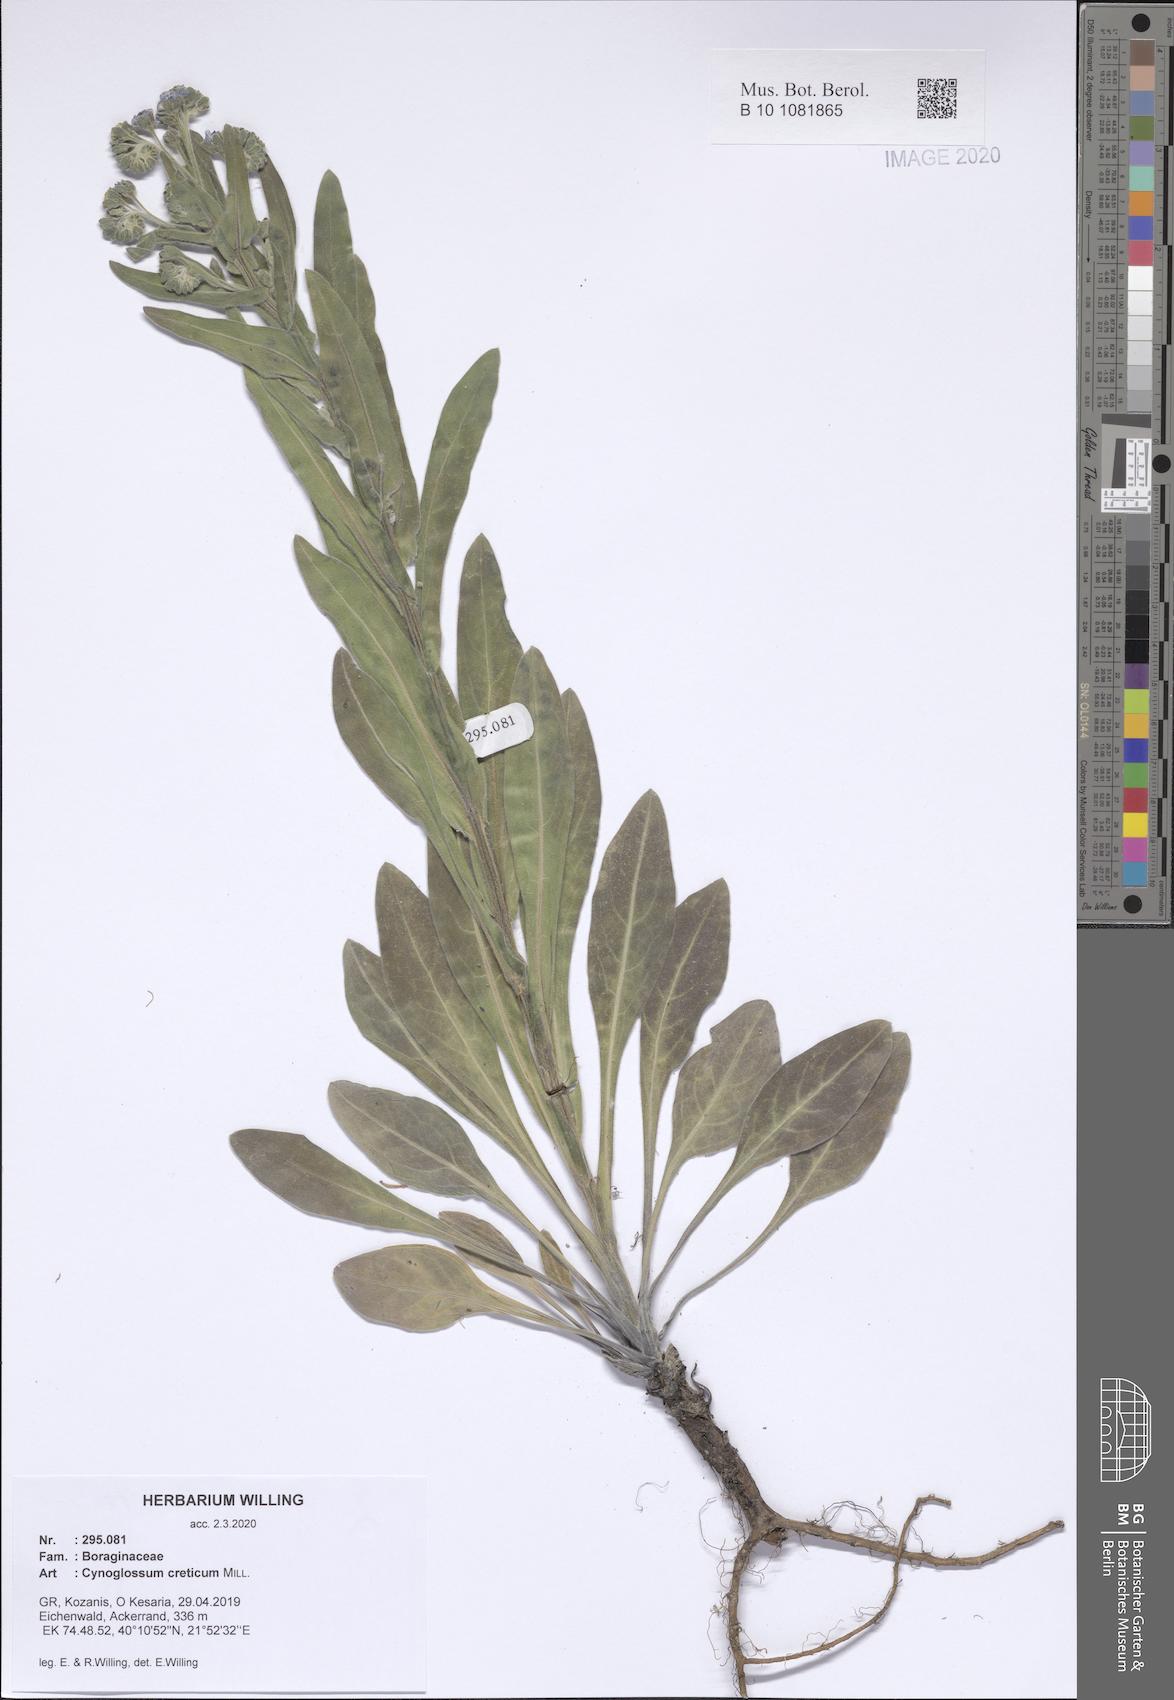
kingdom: Plantae
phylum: Tracheophyta
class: Magnoliopsida
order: Boraginales
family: Boraginaceae
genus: Cynoglossum
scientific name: Cynoglossum creticum
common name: Blue hound's tongue
